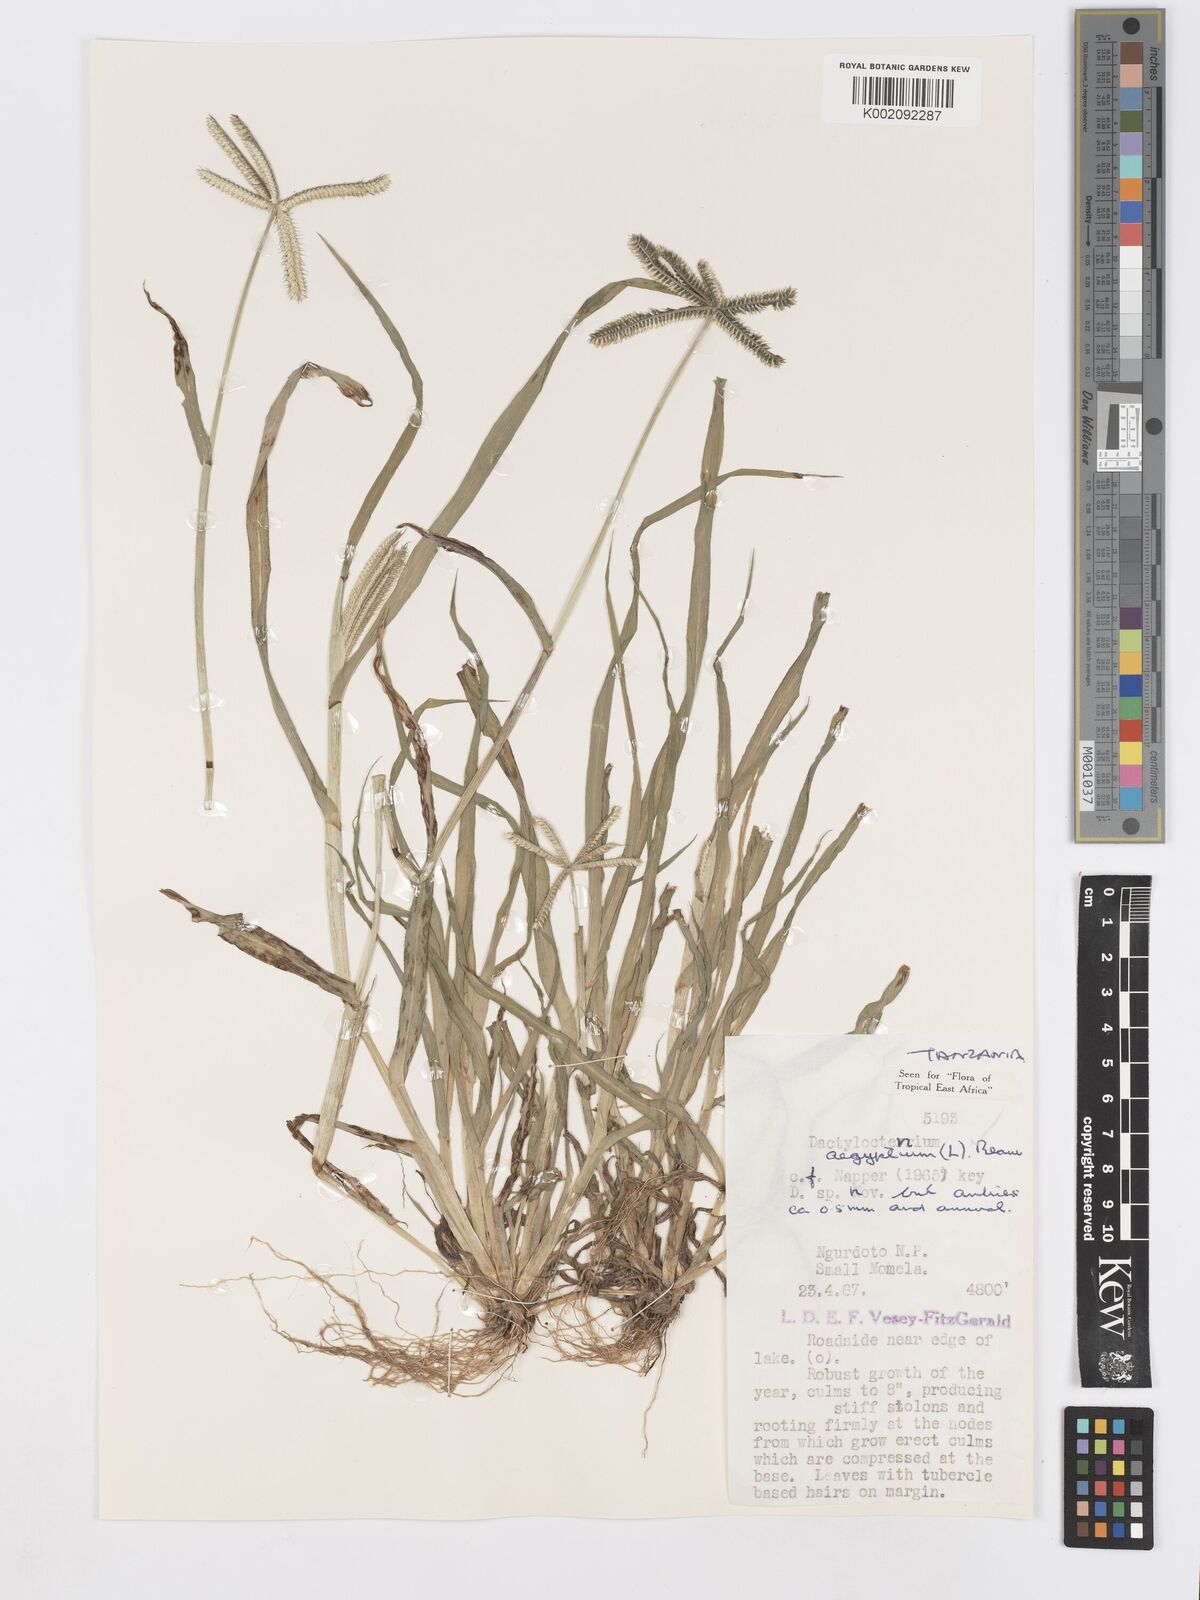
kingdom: Plantae
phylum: Tracheophyta
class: Liliopsida
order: Poales
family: Poaceae
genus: Dactyloctenium
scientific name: Dactyloctenium aegyptium
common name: Egyptian grass
